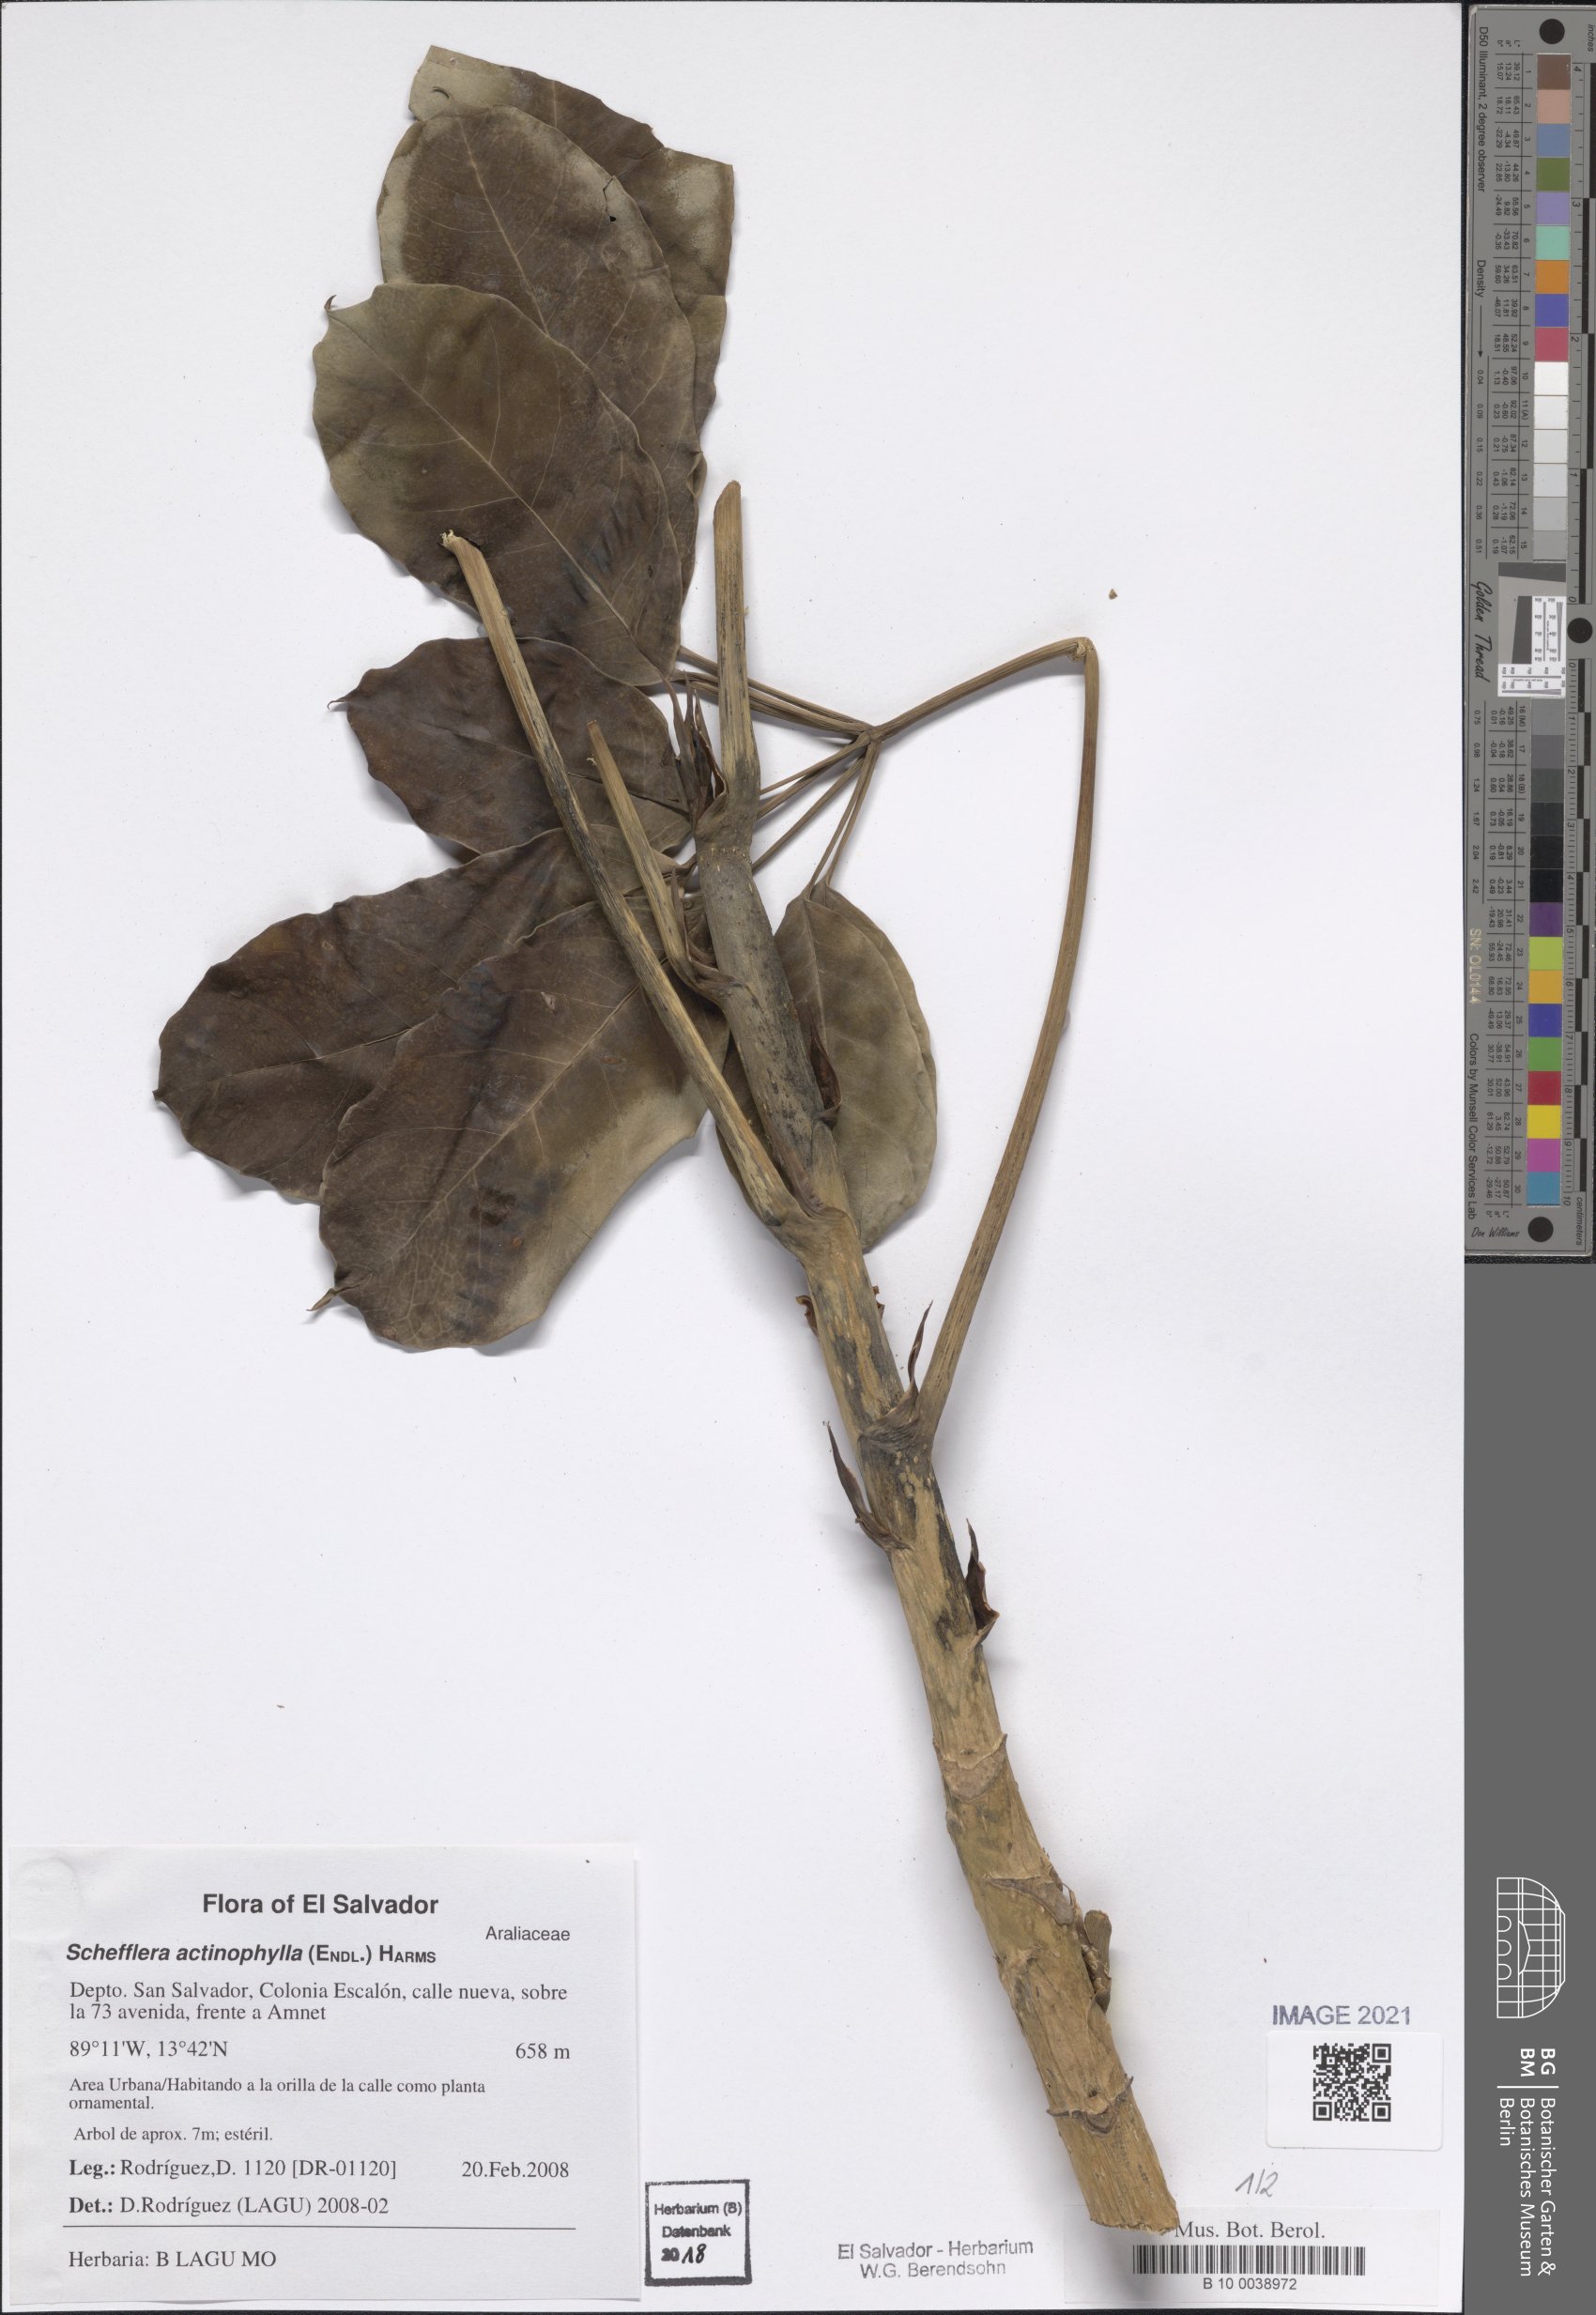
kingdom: Plantae
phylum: Tracheophyta
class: Magnoliopsida
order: Apiales
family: Araliaceae
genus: Heptapleurum
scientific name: Heptapleurum actinophyllum
